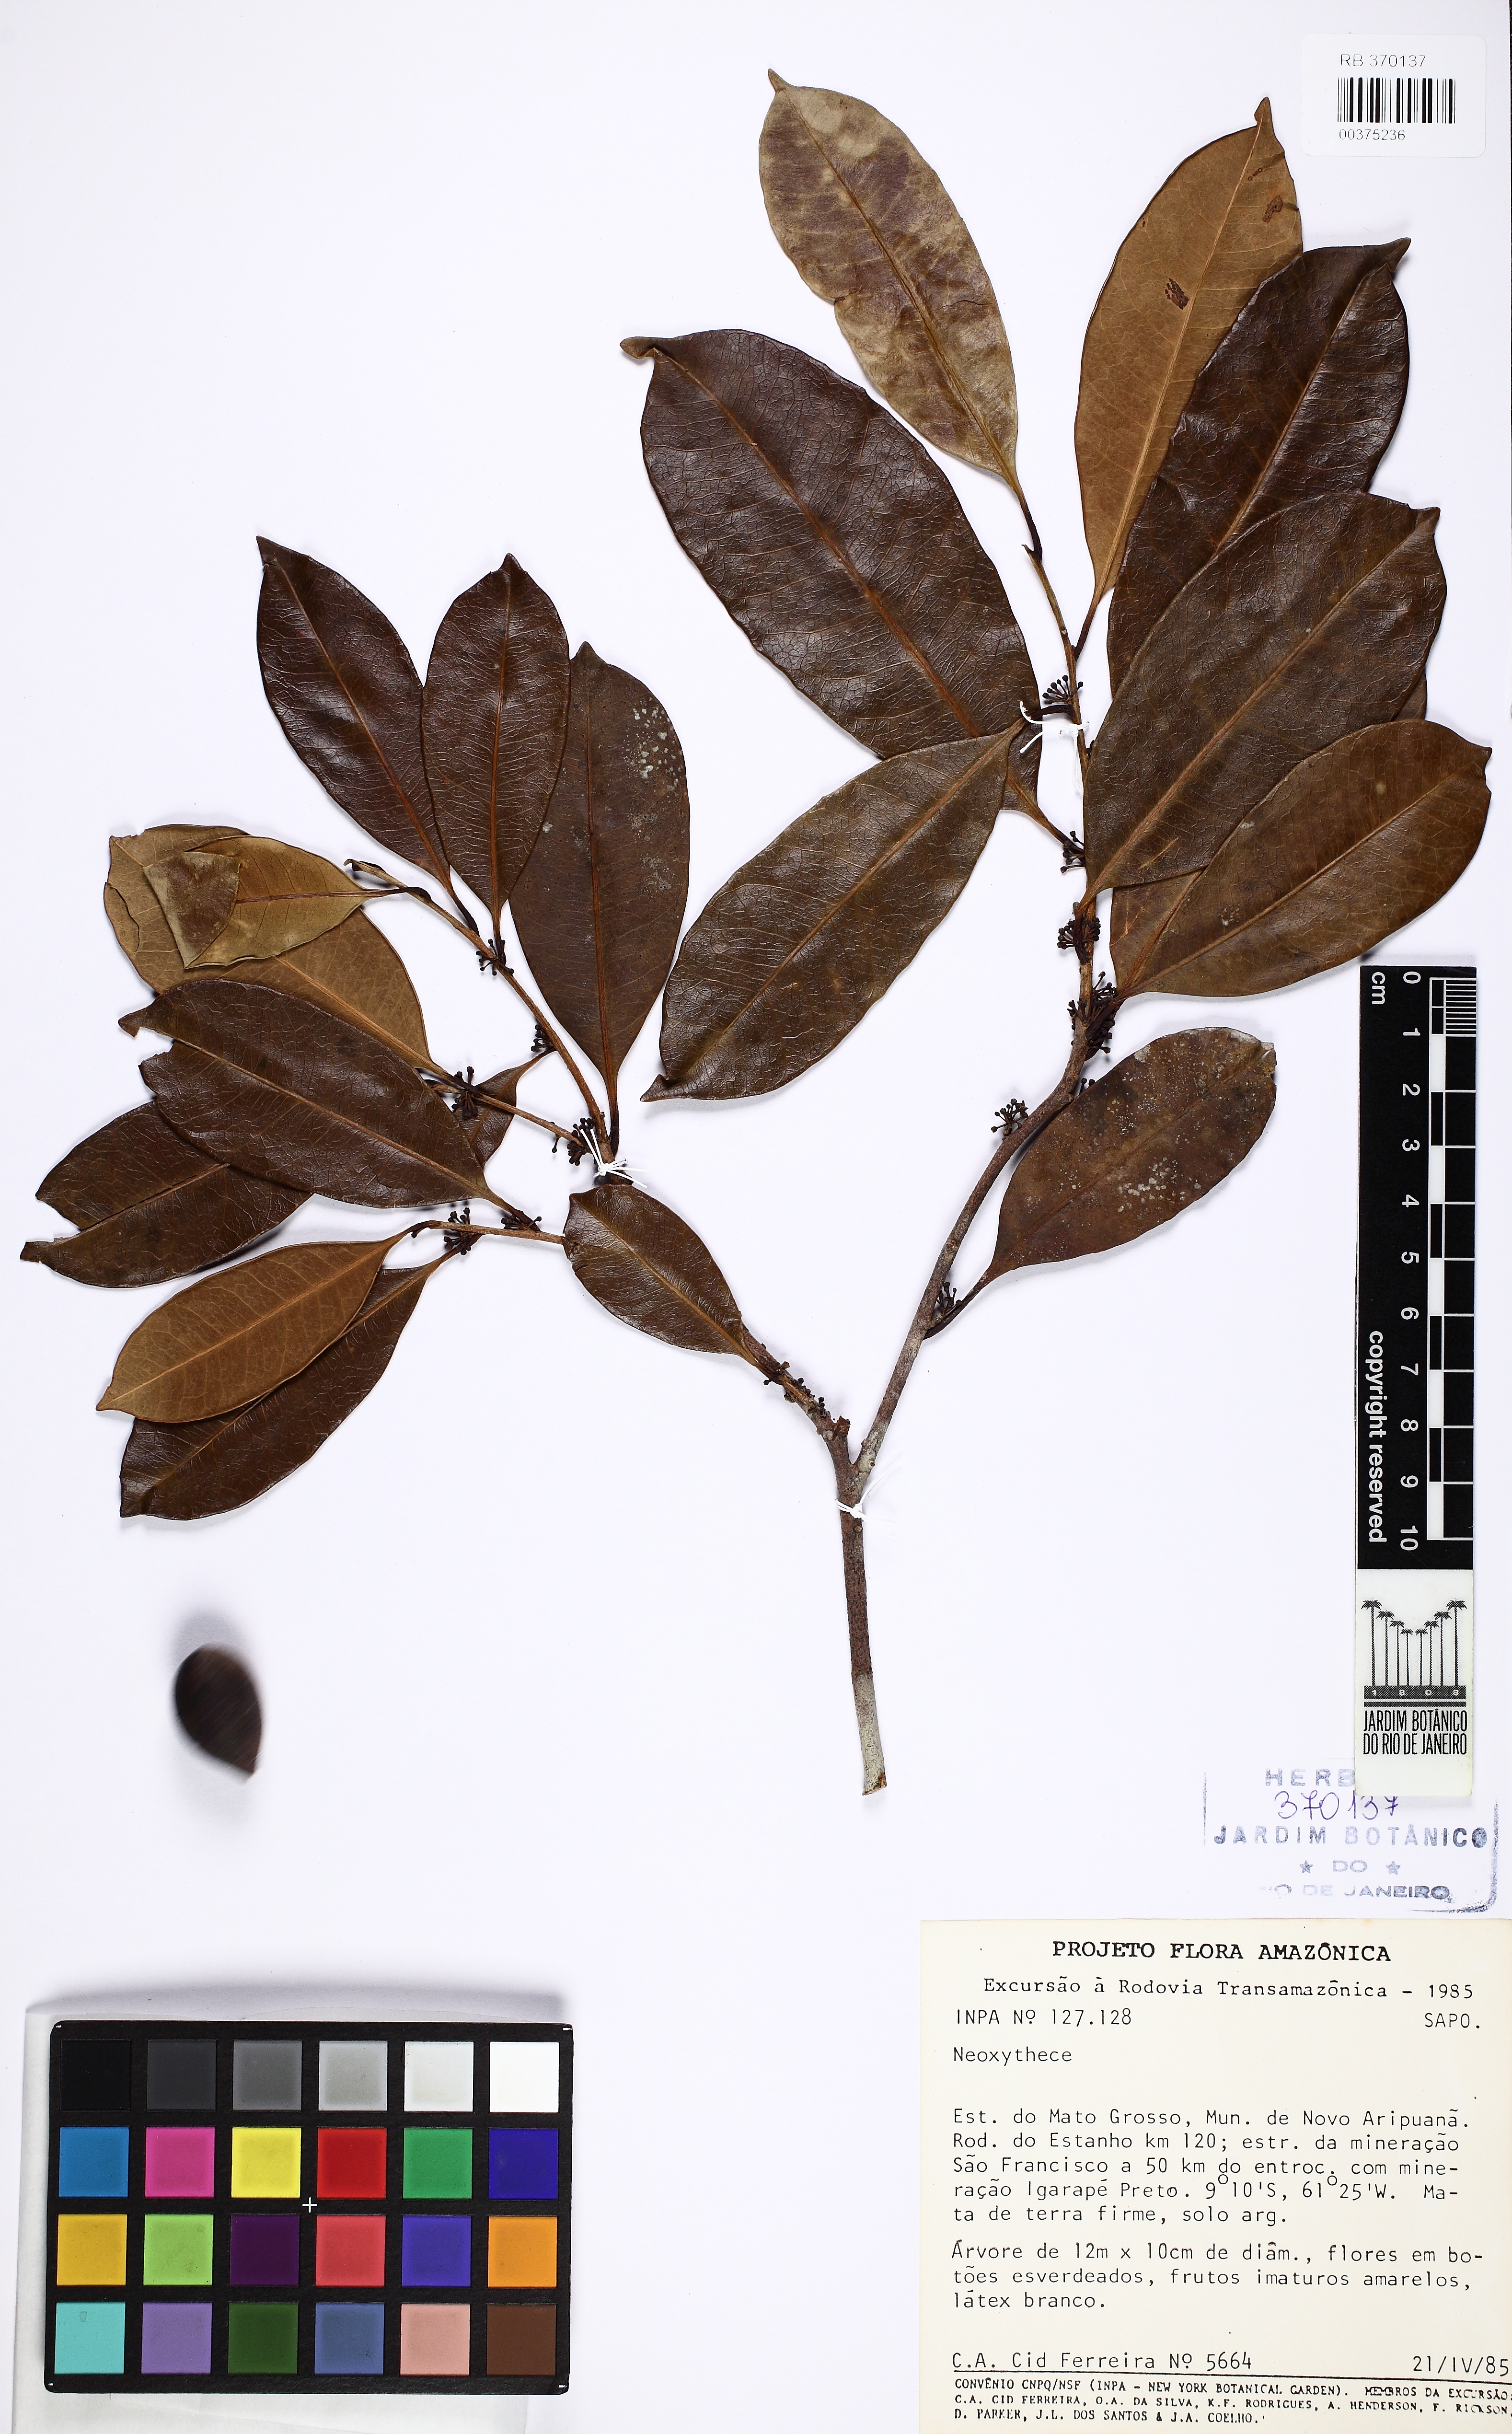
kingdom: Plantae
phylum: Tracheophyta
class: Magnoliopsida
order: Ericales
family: Sapotaceae
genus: Pouteria
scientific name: Pouteria ramiflora
